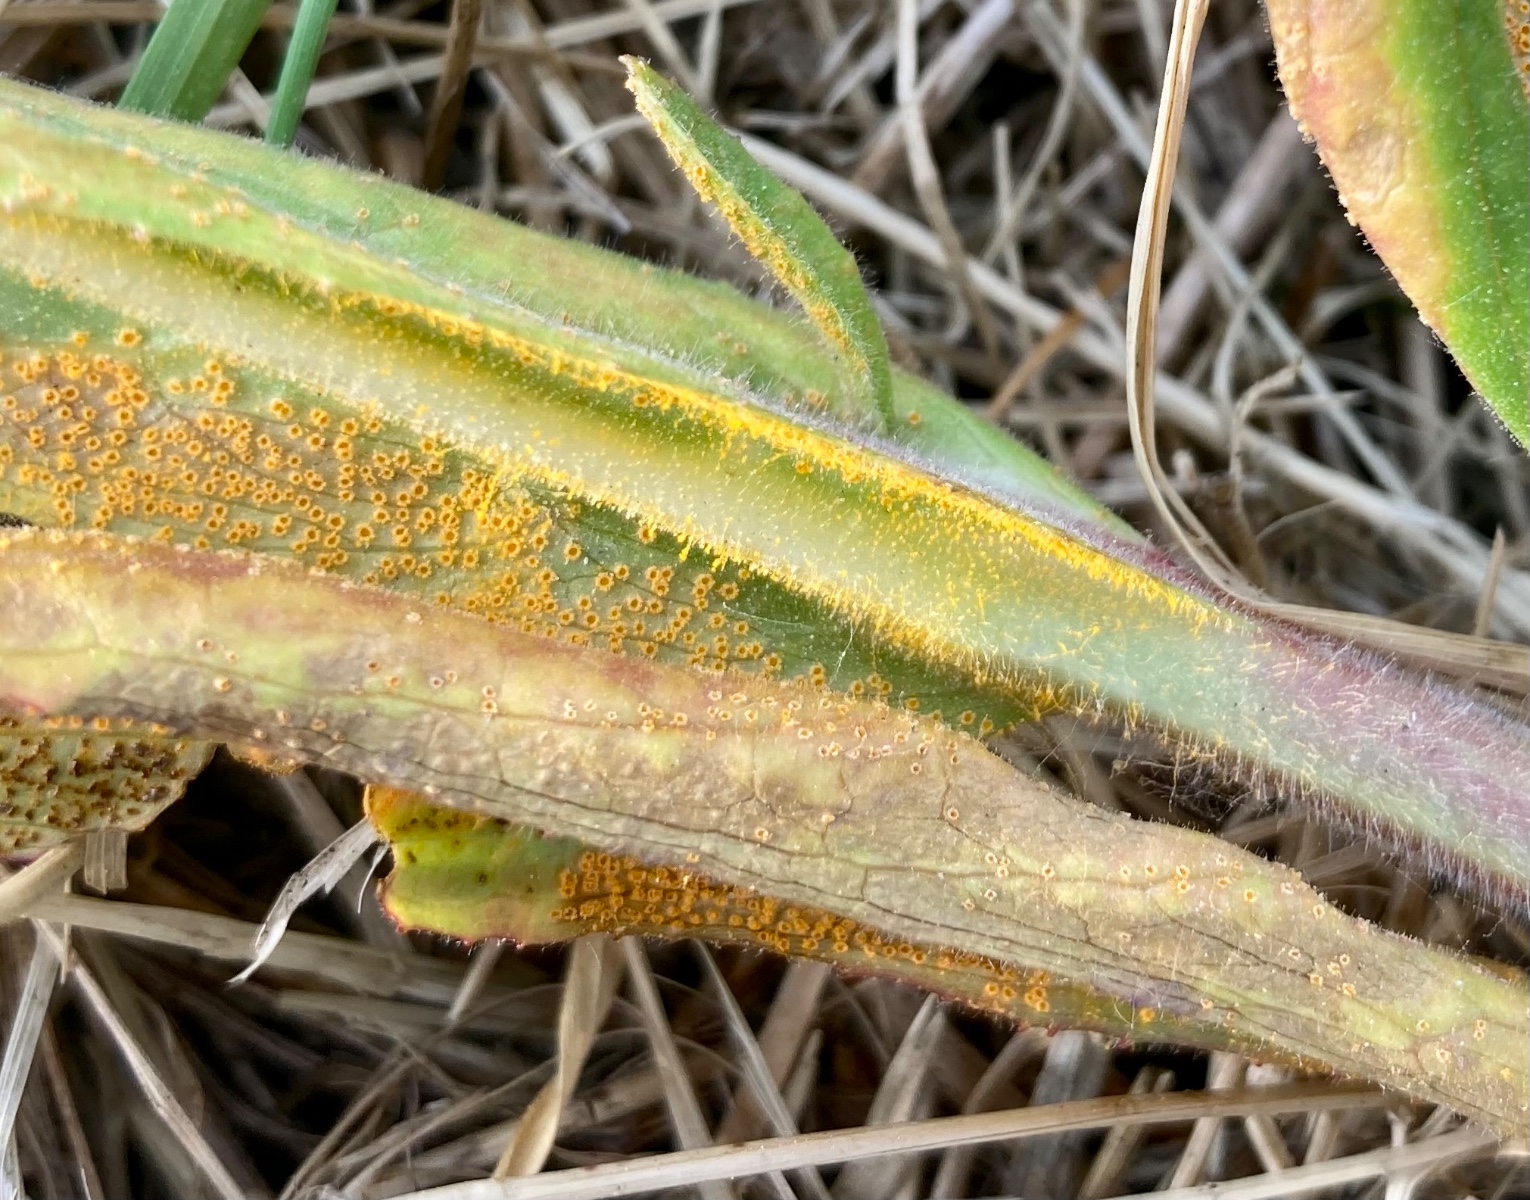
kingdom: Fungi
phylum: Basidiomycota
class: Pucciniomycetes
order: Pucciniales
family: Pucciniaceae
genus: Puccinia
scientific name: Puccinia pulverulenta
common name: dueurt-tvecellerust
